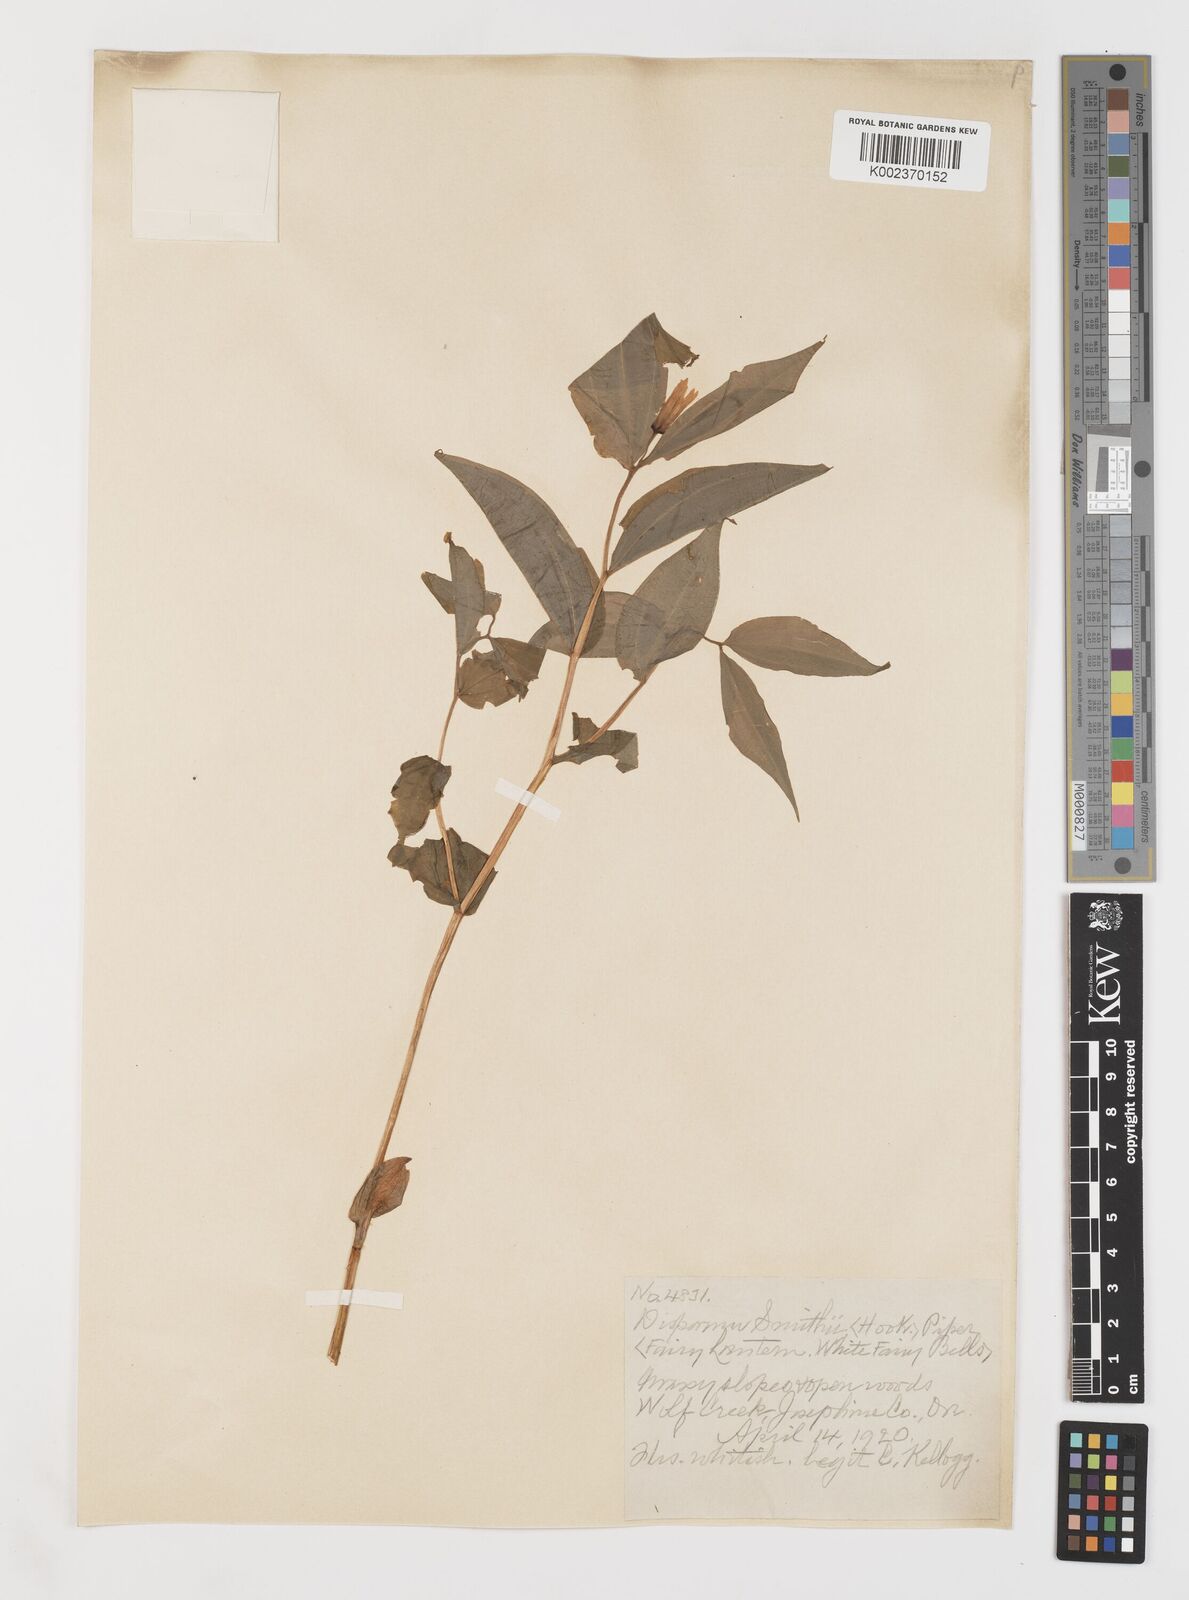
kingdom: Plantae
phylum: Tracheophyta
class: Liliopsida
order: Liliales
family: Liliaceae
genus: Prosartes
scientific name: Prosartes smithii
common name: Fairy-lantern
